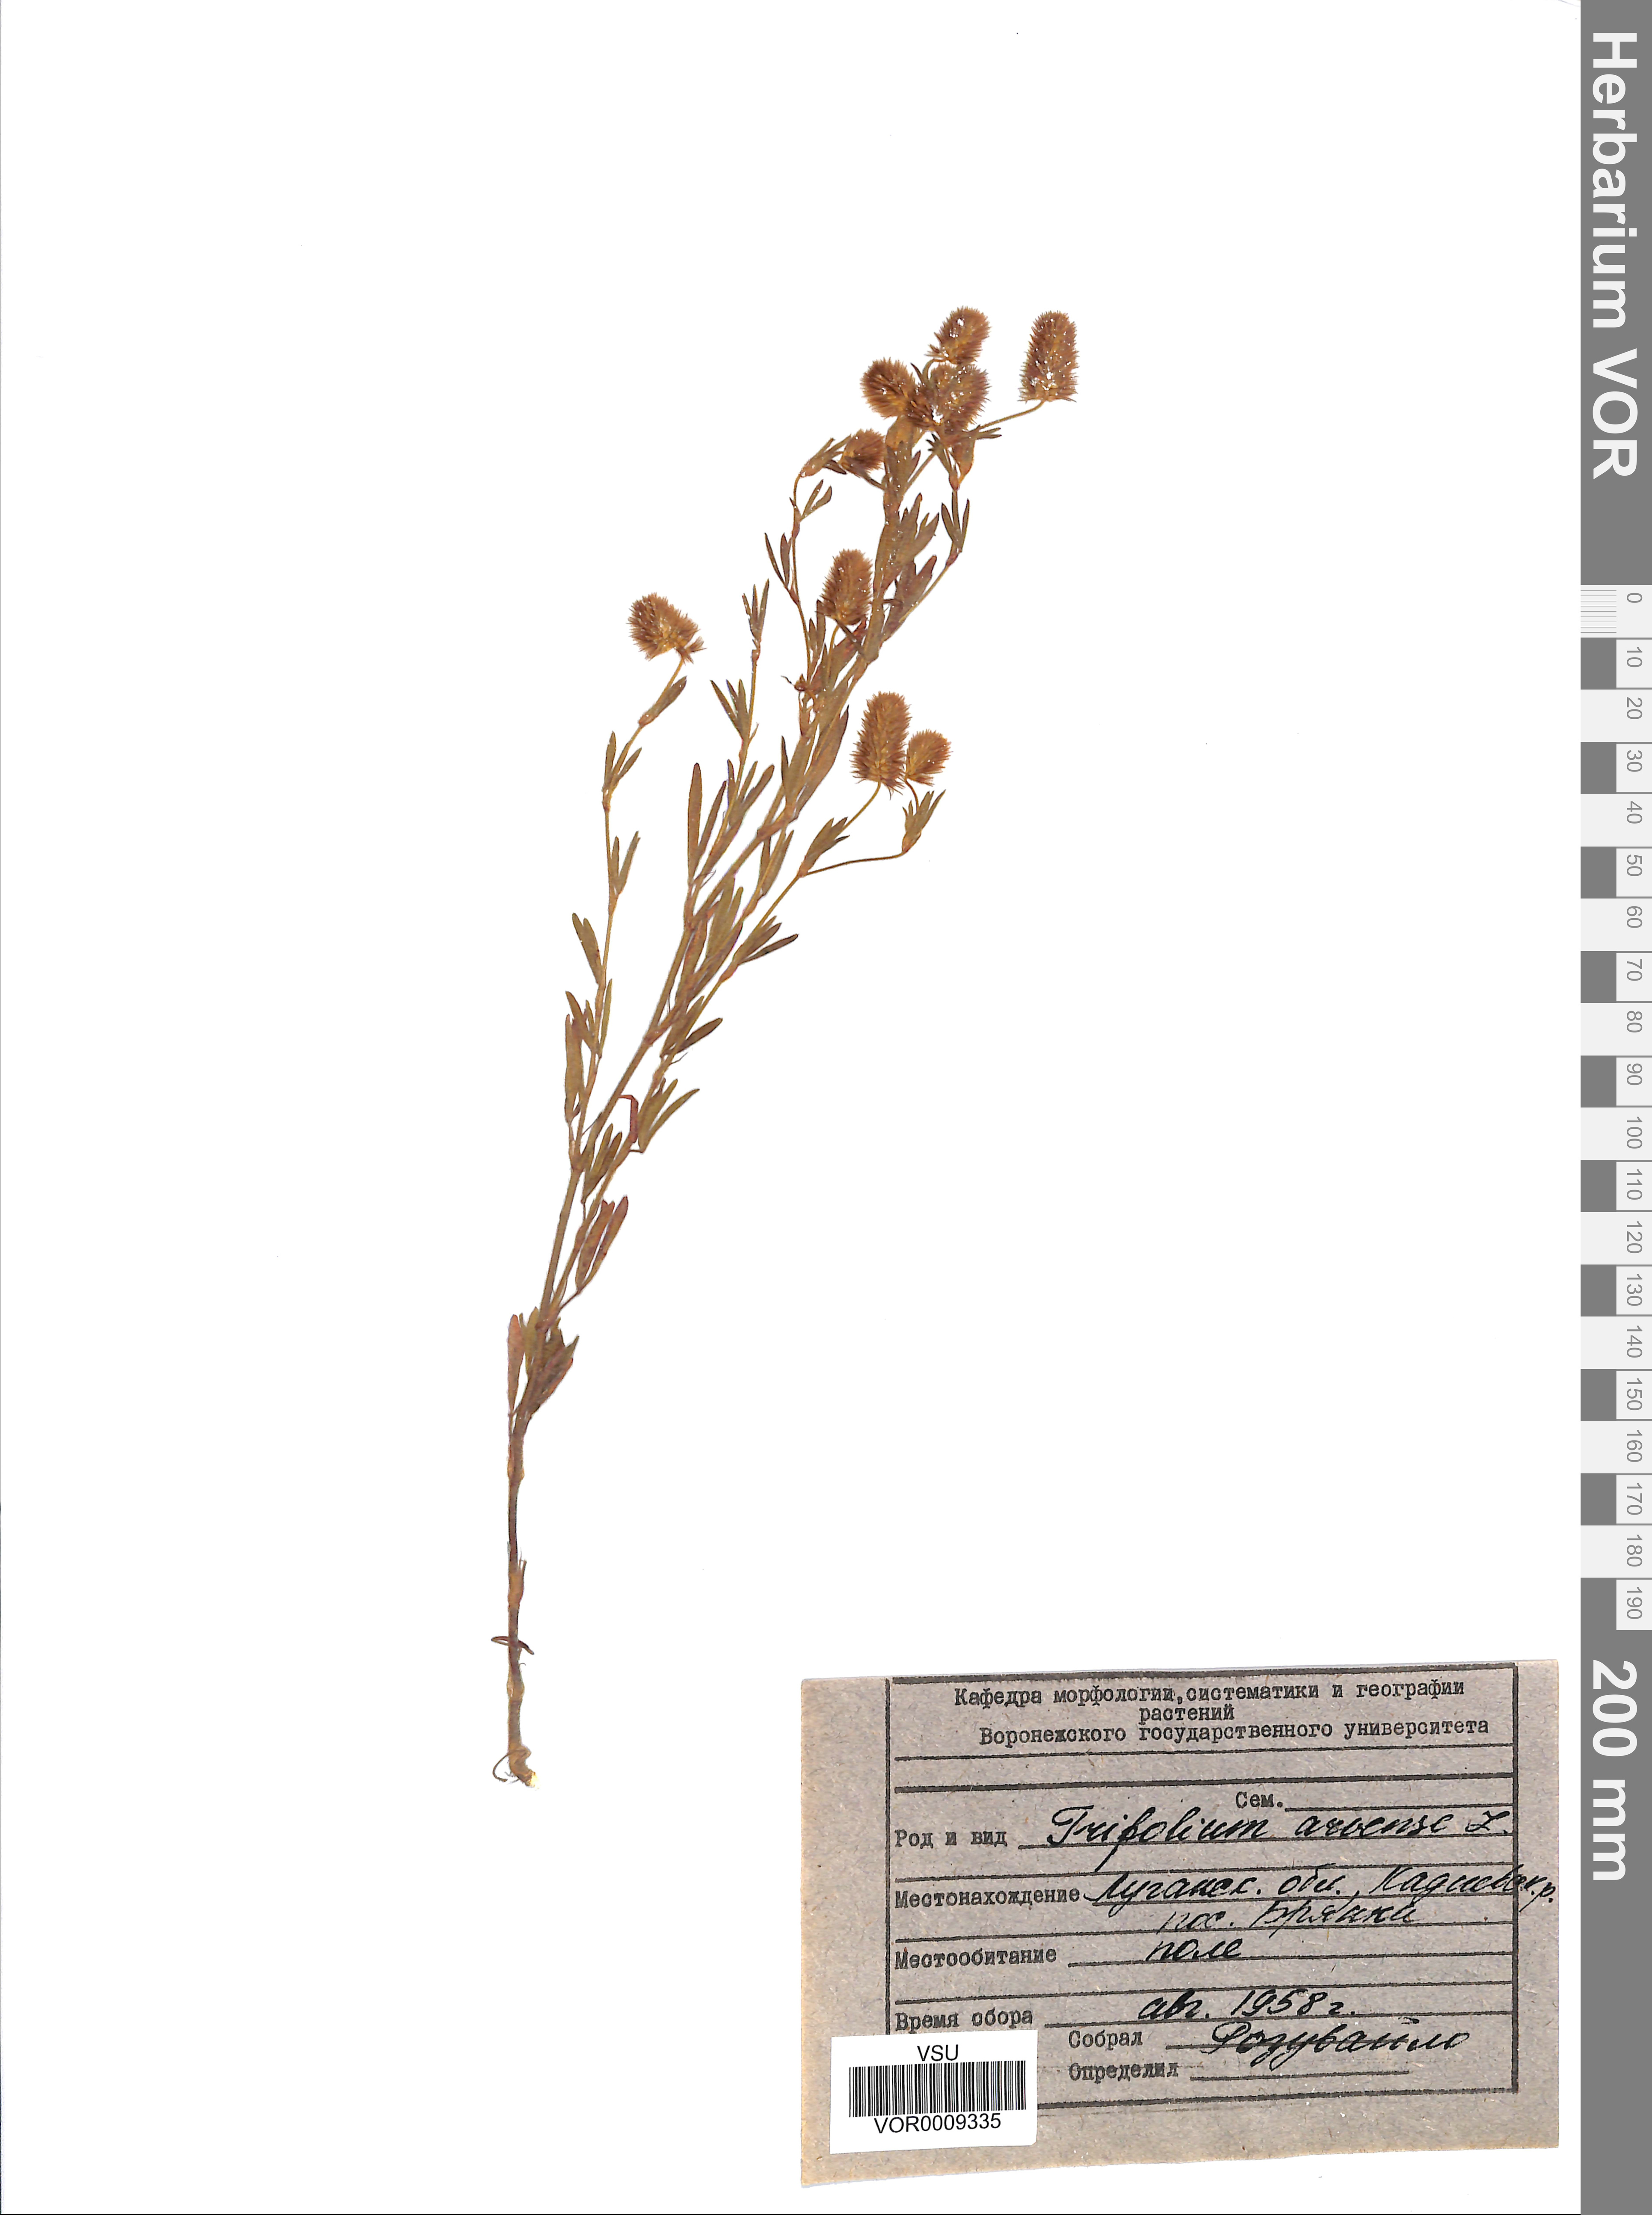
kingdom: Plantae
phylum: Tracheophyta
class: Magnoliopsida
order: Fabales
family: Fabaceae
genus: Trifolium
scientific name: Trifolium arvense
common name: Hare's-foot clover
